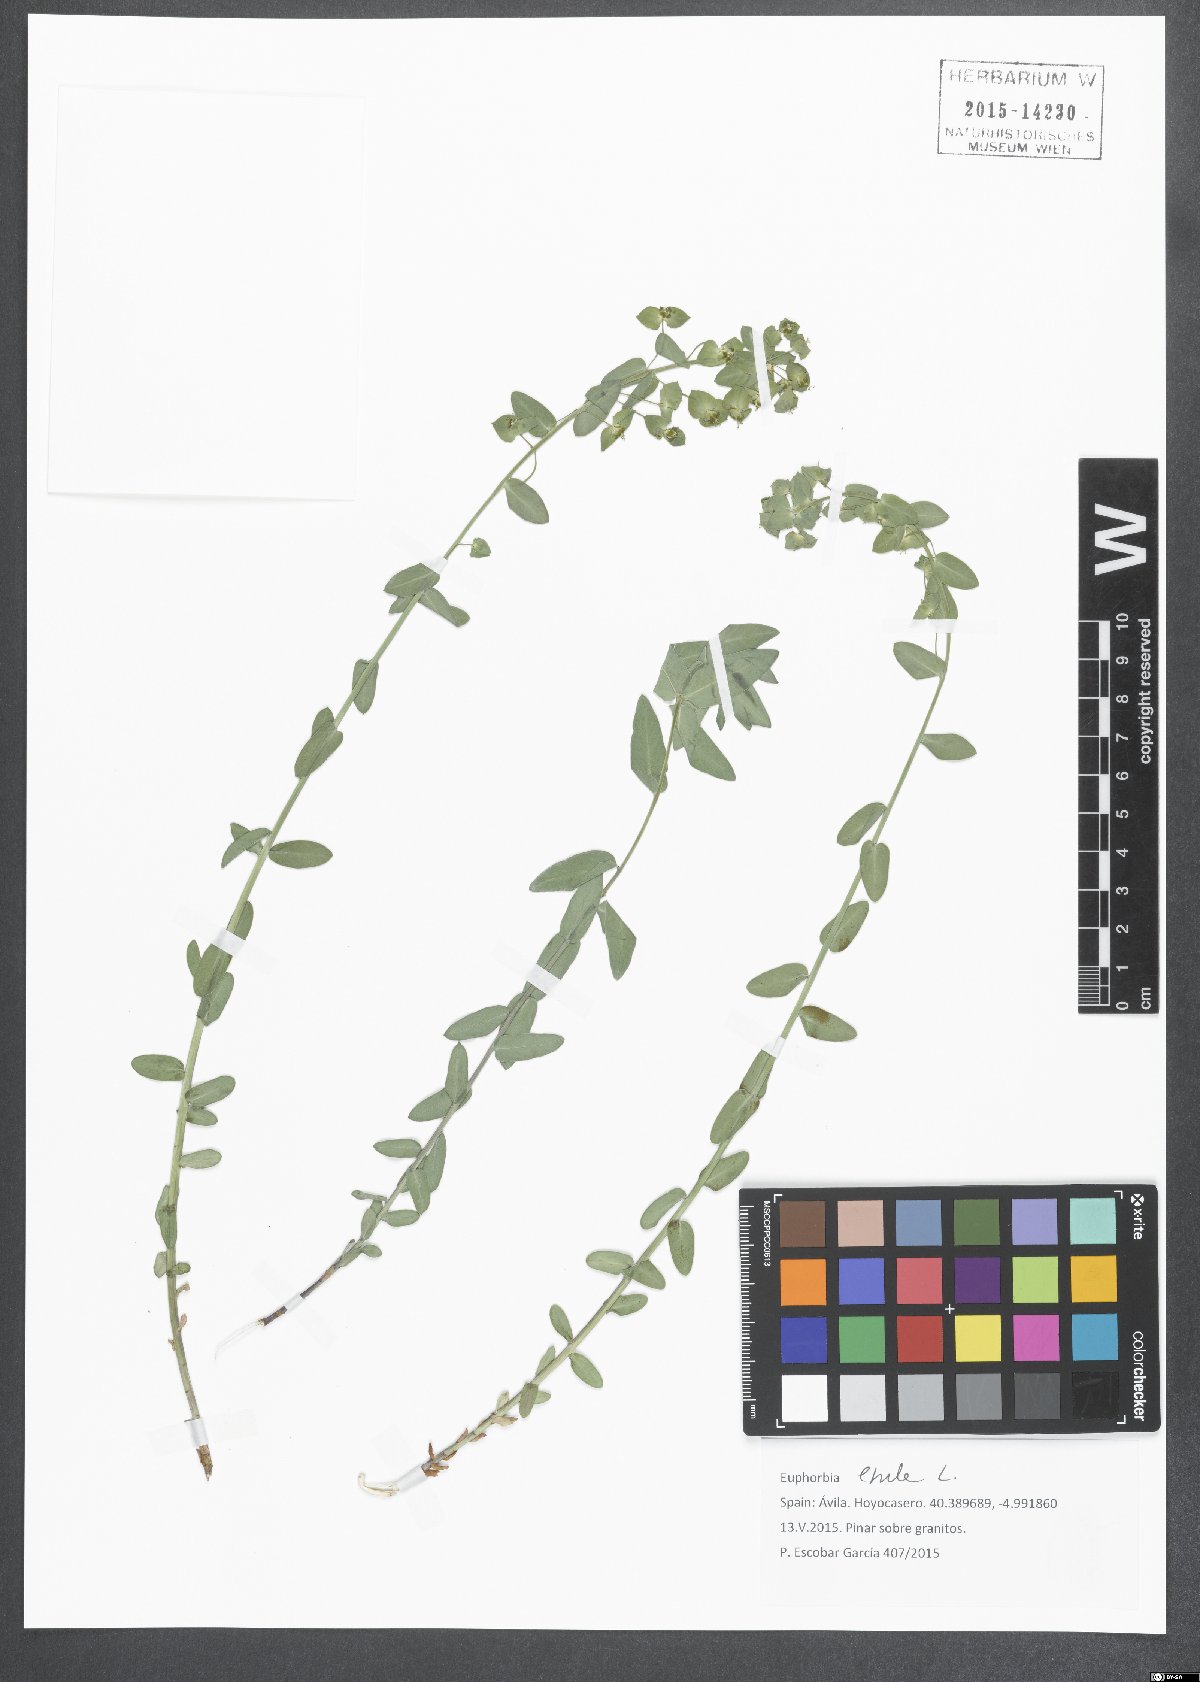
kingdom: Plantae
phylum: Tracheophyta
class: Magnoliopsida
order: Malpighiales
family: Euphorbiaceae
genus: Euphorbia
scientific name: Euphorbia esula
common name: Leafy spurge
